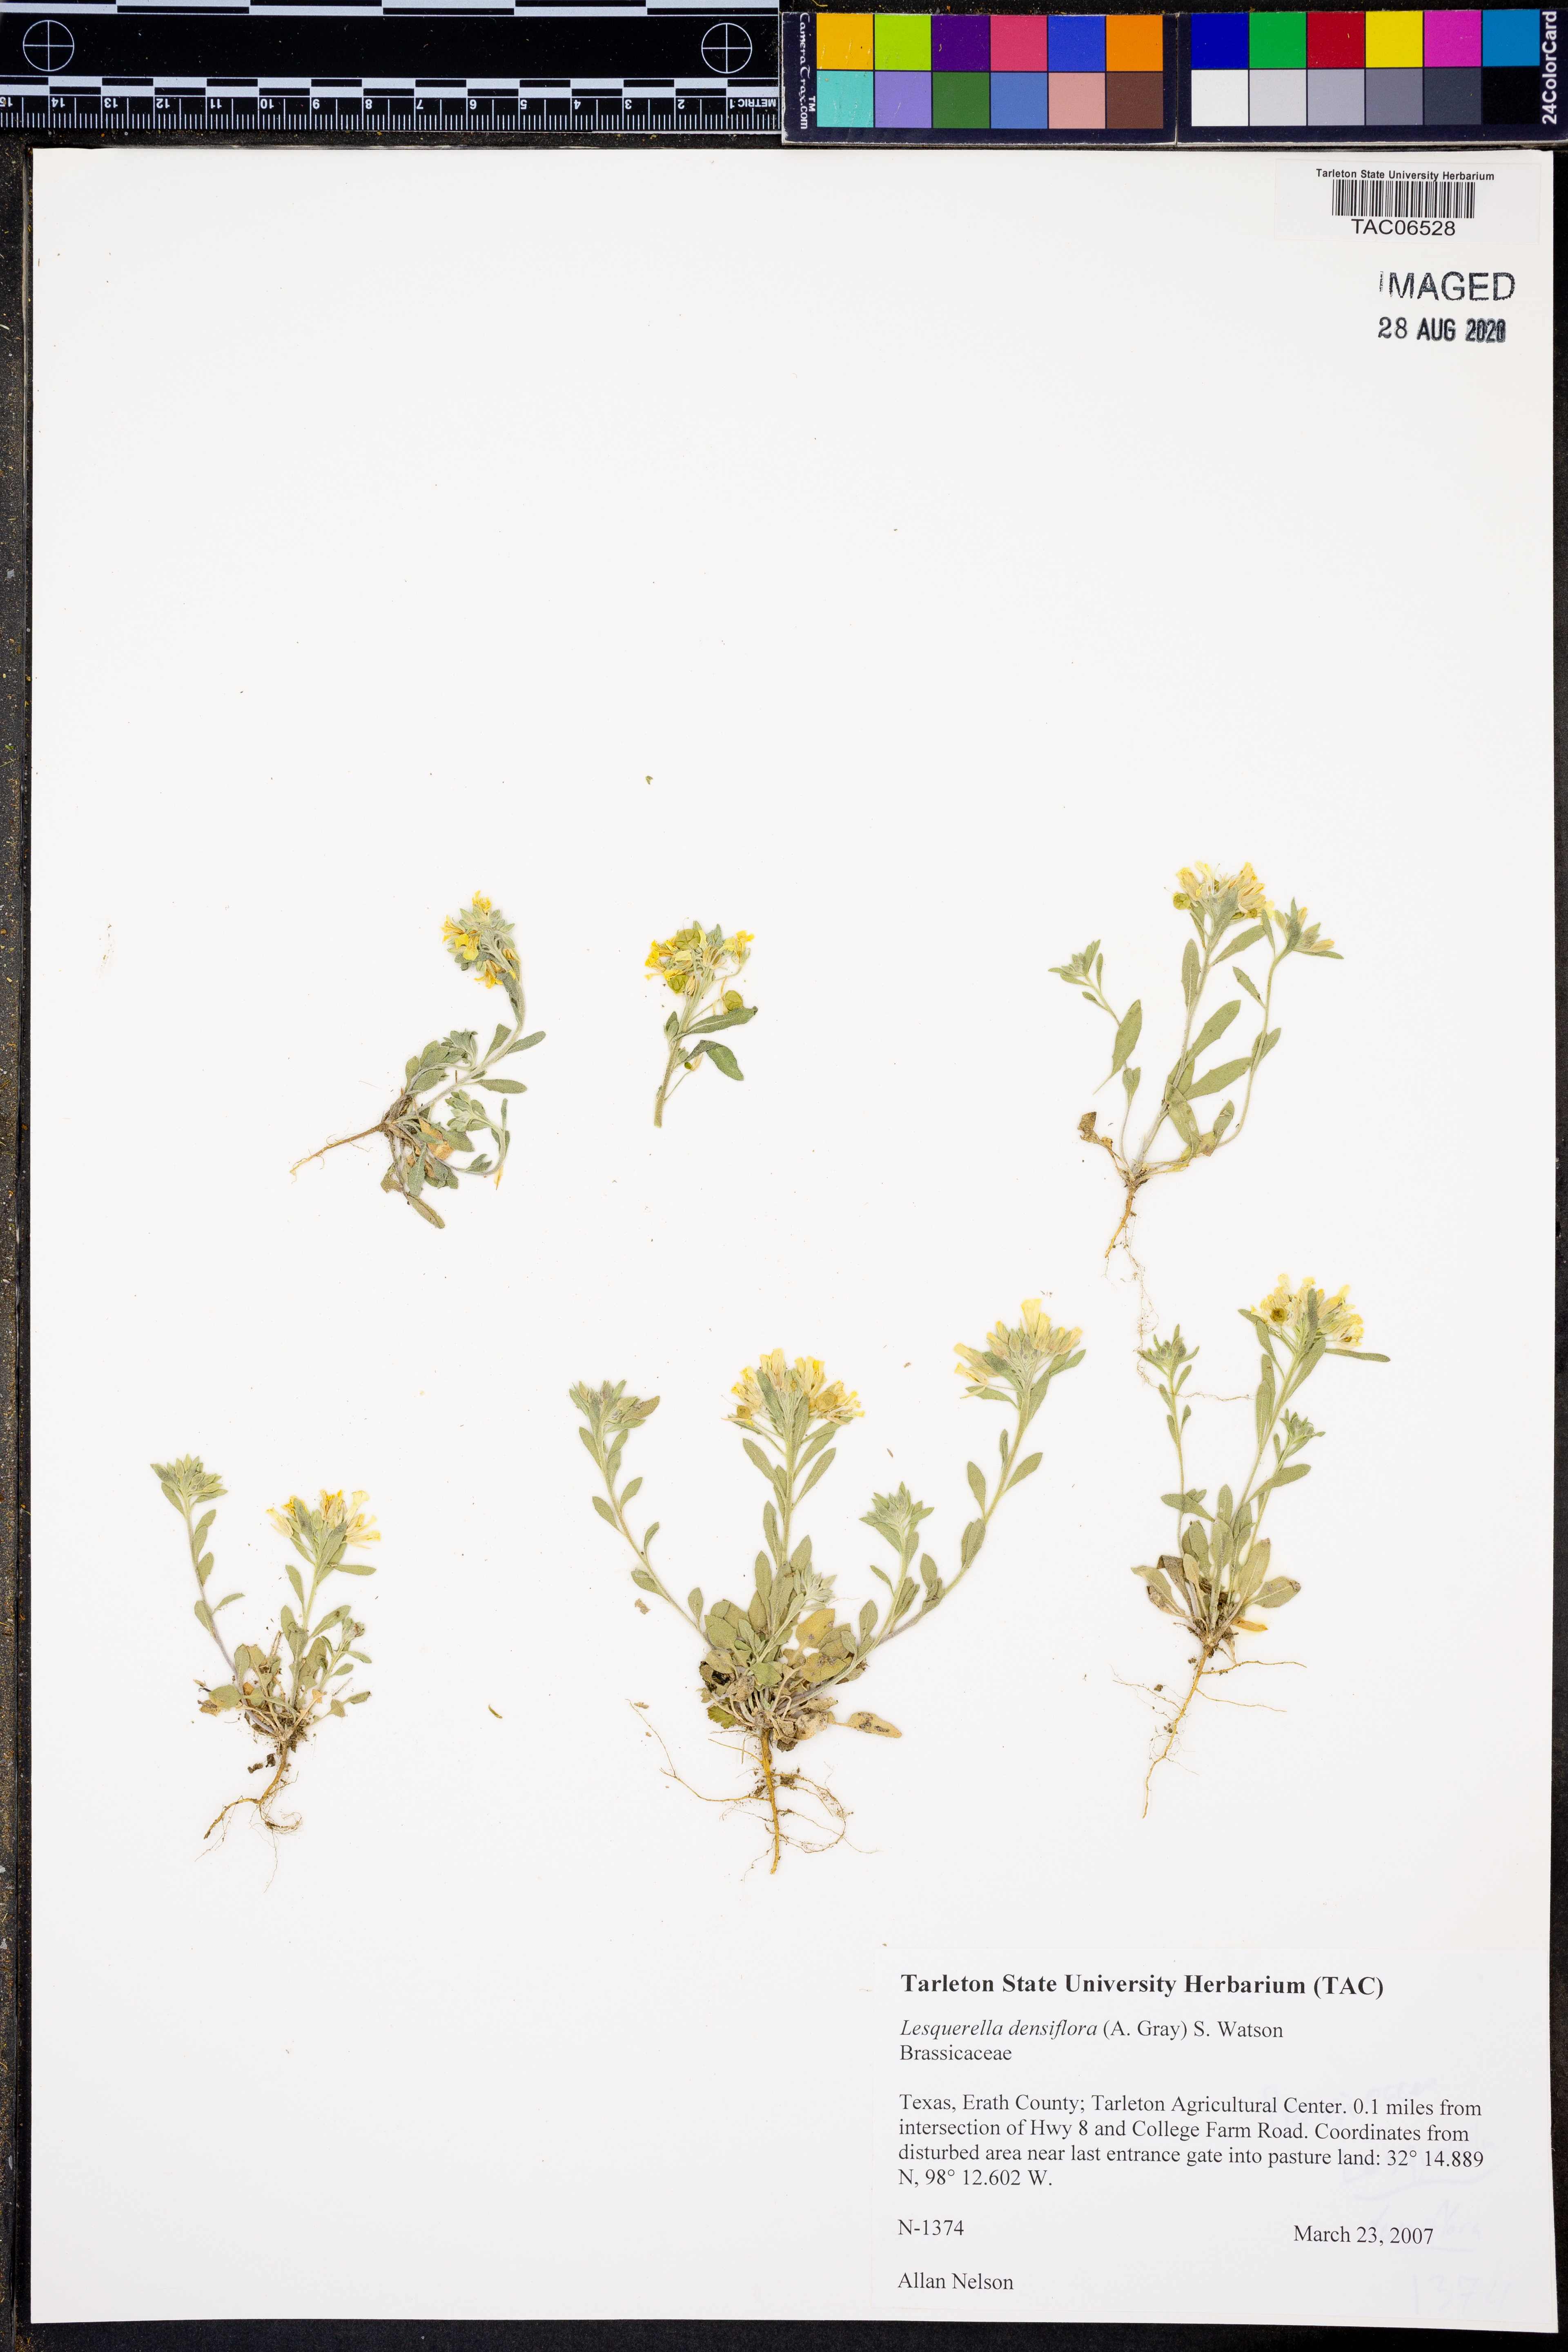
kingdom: Plantae
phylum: Tracheophyta
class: Magnoliopsida
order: Brassicales
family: Brassicaceae
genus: Physaria
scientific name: Physaria densiflora
